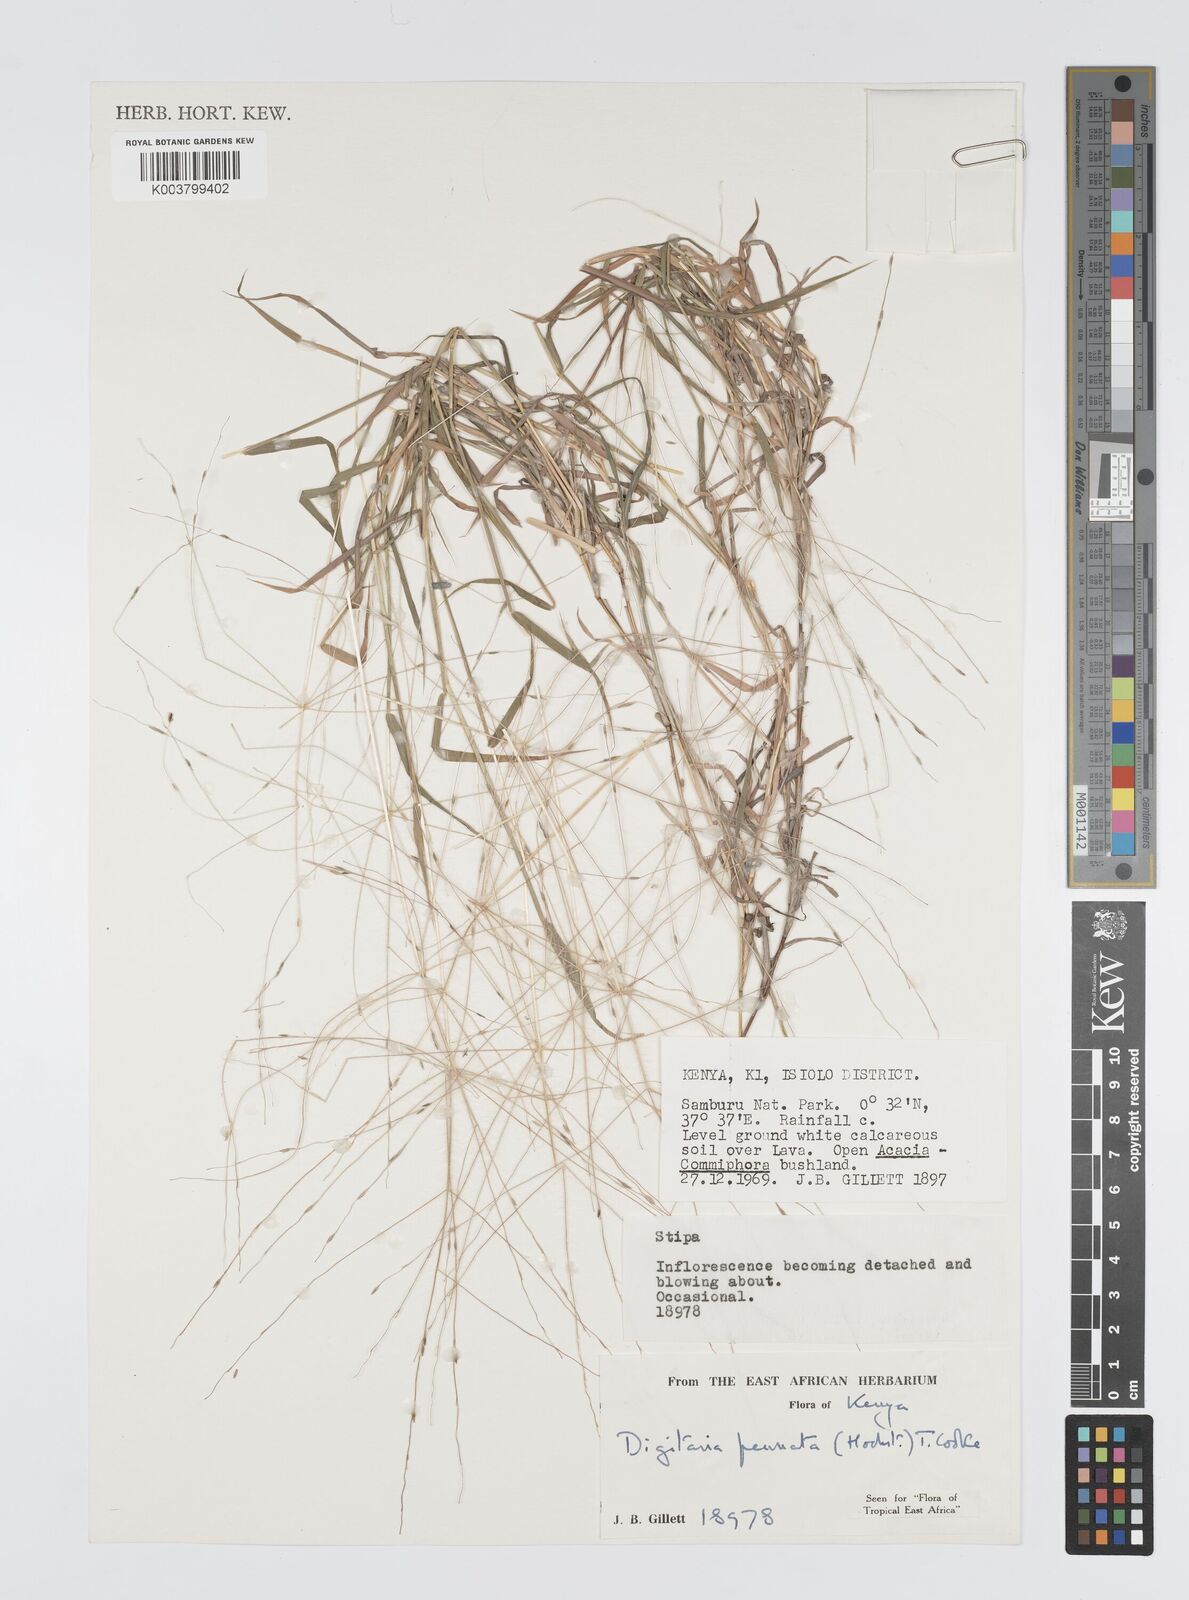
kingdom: Plantae
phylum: Tracheophyta
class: Liliopsida
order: Poales
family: Poaceae
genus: Digitaria
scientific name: Digitaria
